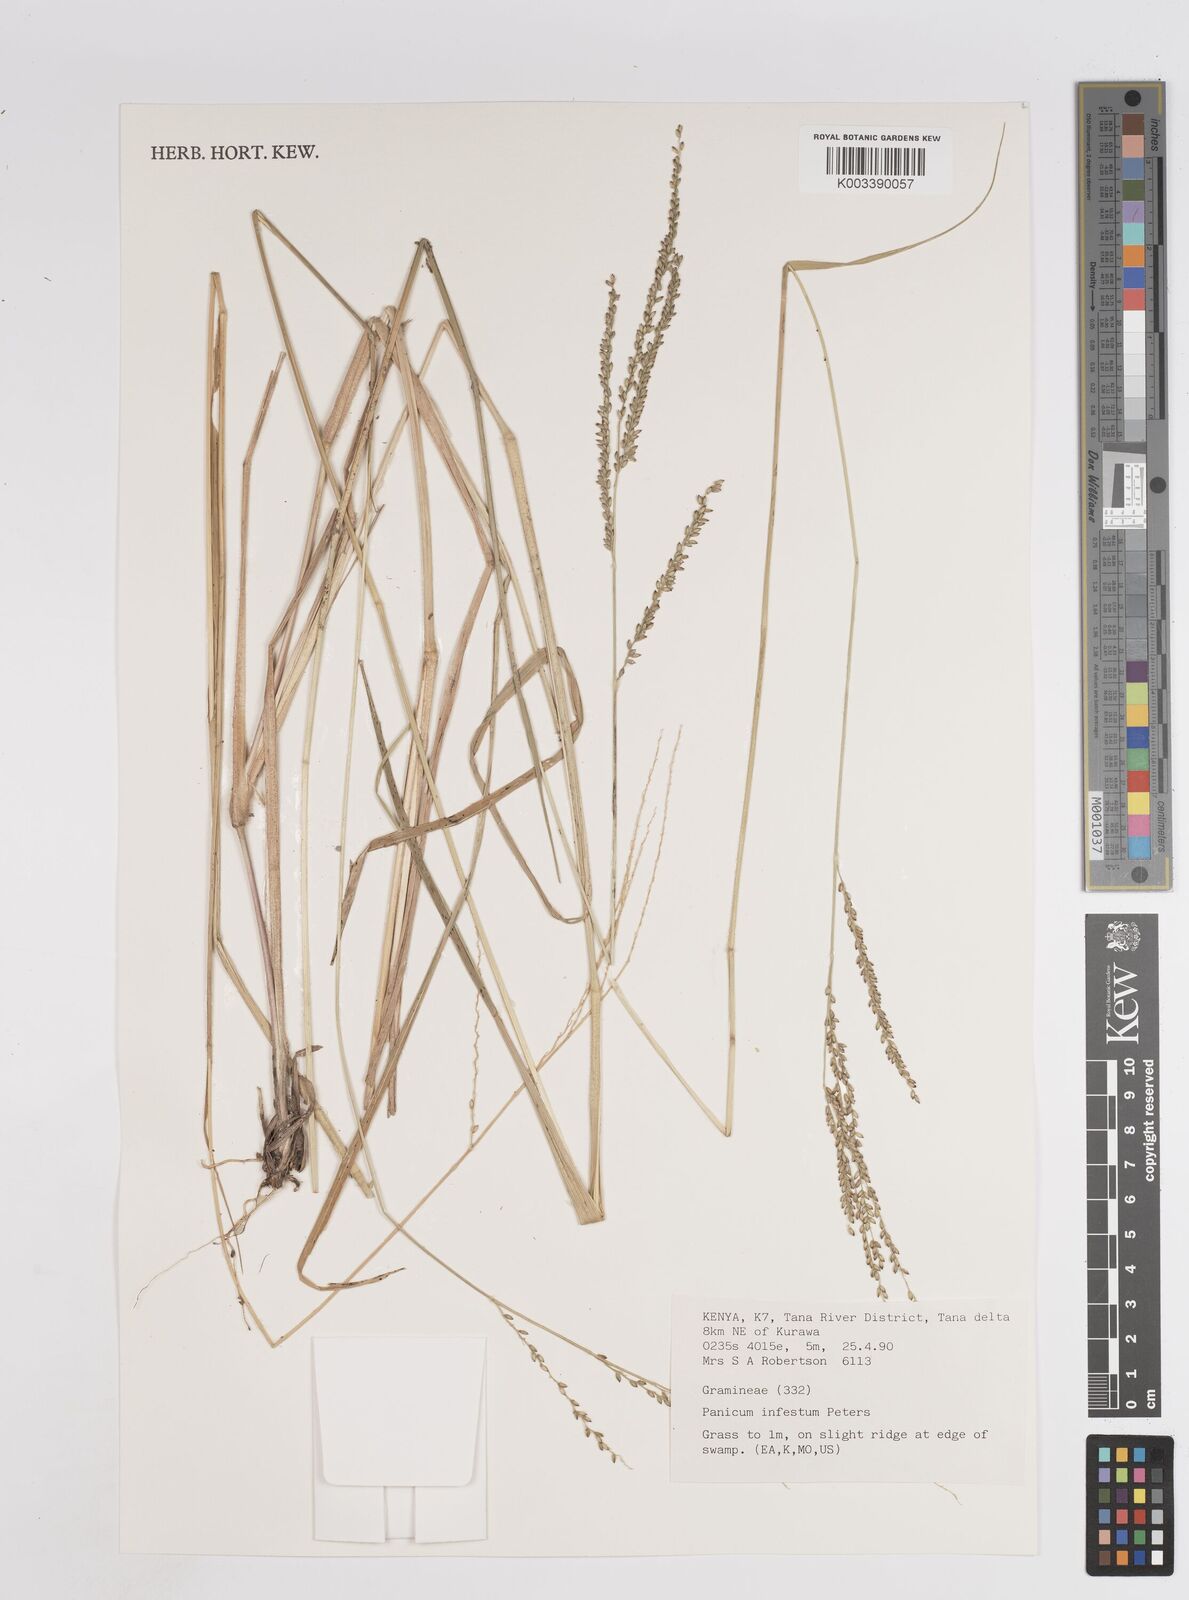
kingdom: Plantae
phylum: Tracheophyta
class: Liliopsida
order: Poales
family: Poaceae
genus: Megathyrsus
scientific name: Megathyrsus infestus
